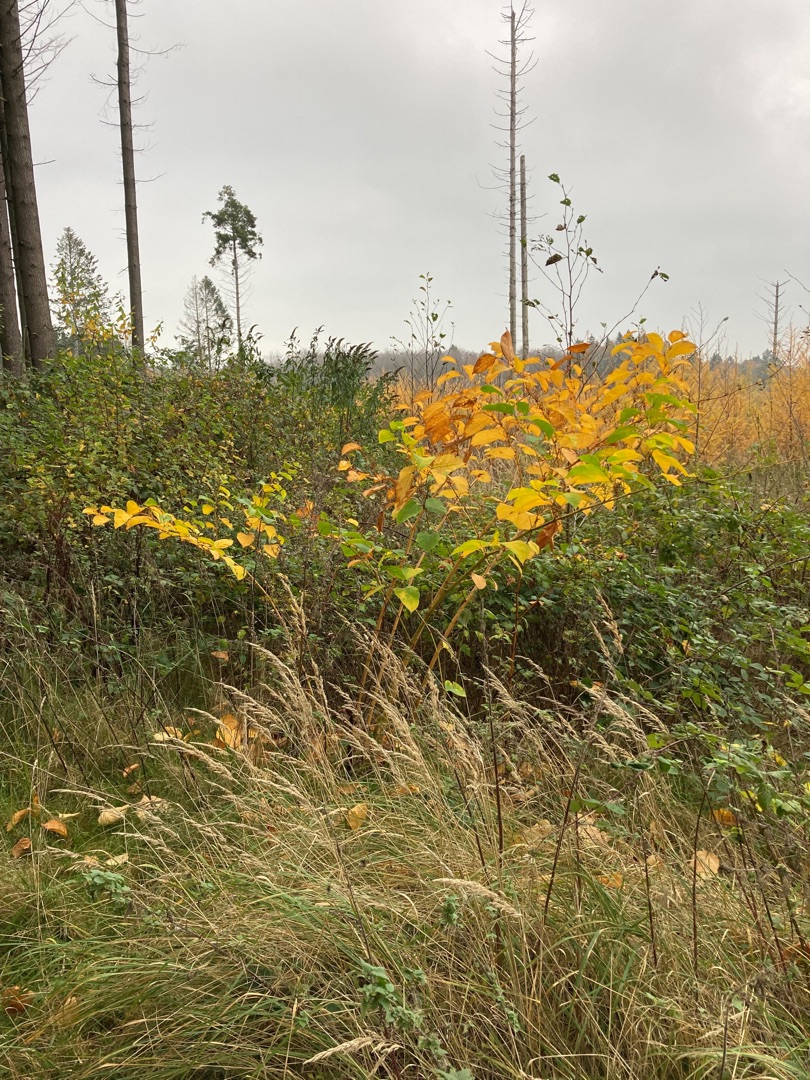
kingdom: Plantae
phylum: Tracheophyta
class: Magnoliopsida
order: Caryophyllales
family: Polygonaceae
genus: Reynoutria
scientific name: Reynoutria japonica
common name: Japan-pileurt
